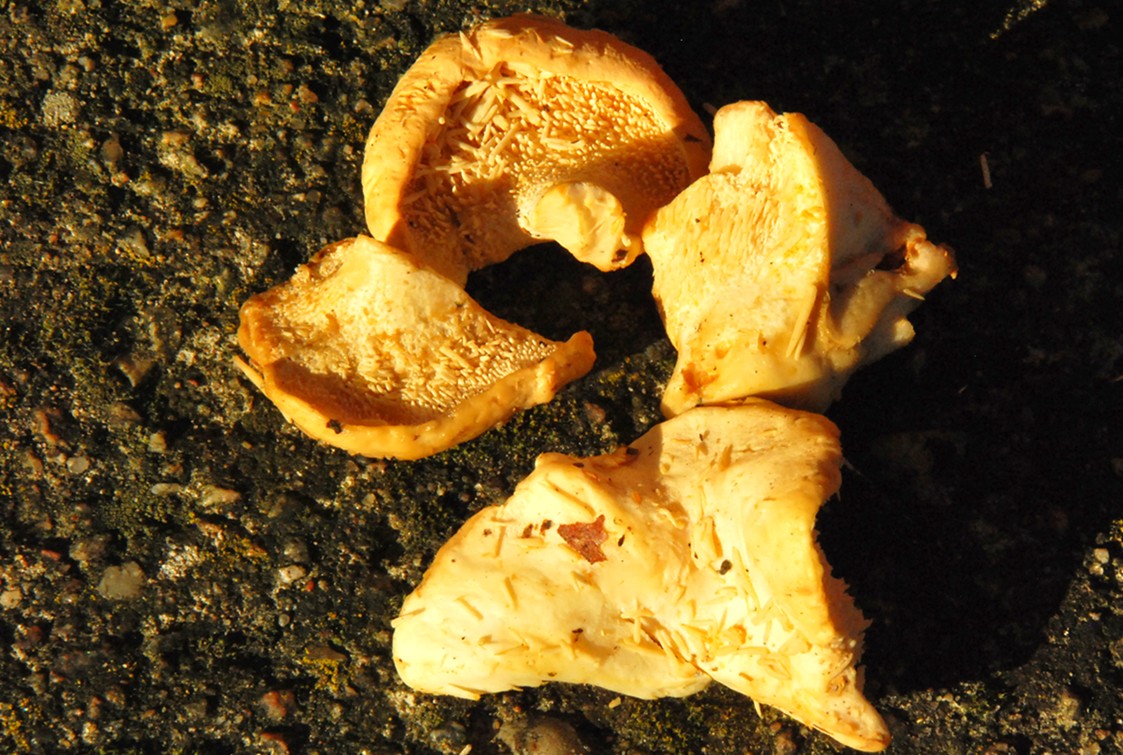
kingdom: Fungi
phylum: Basidiomycota
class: Agaricomycetes
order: Cantharellales
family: Hydnaceae
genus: Hydnum
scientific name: Hydnum repandum
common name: almindelig pigsvamp
